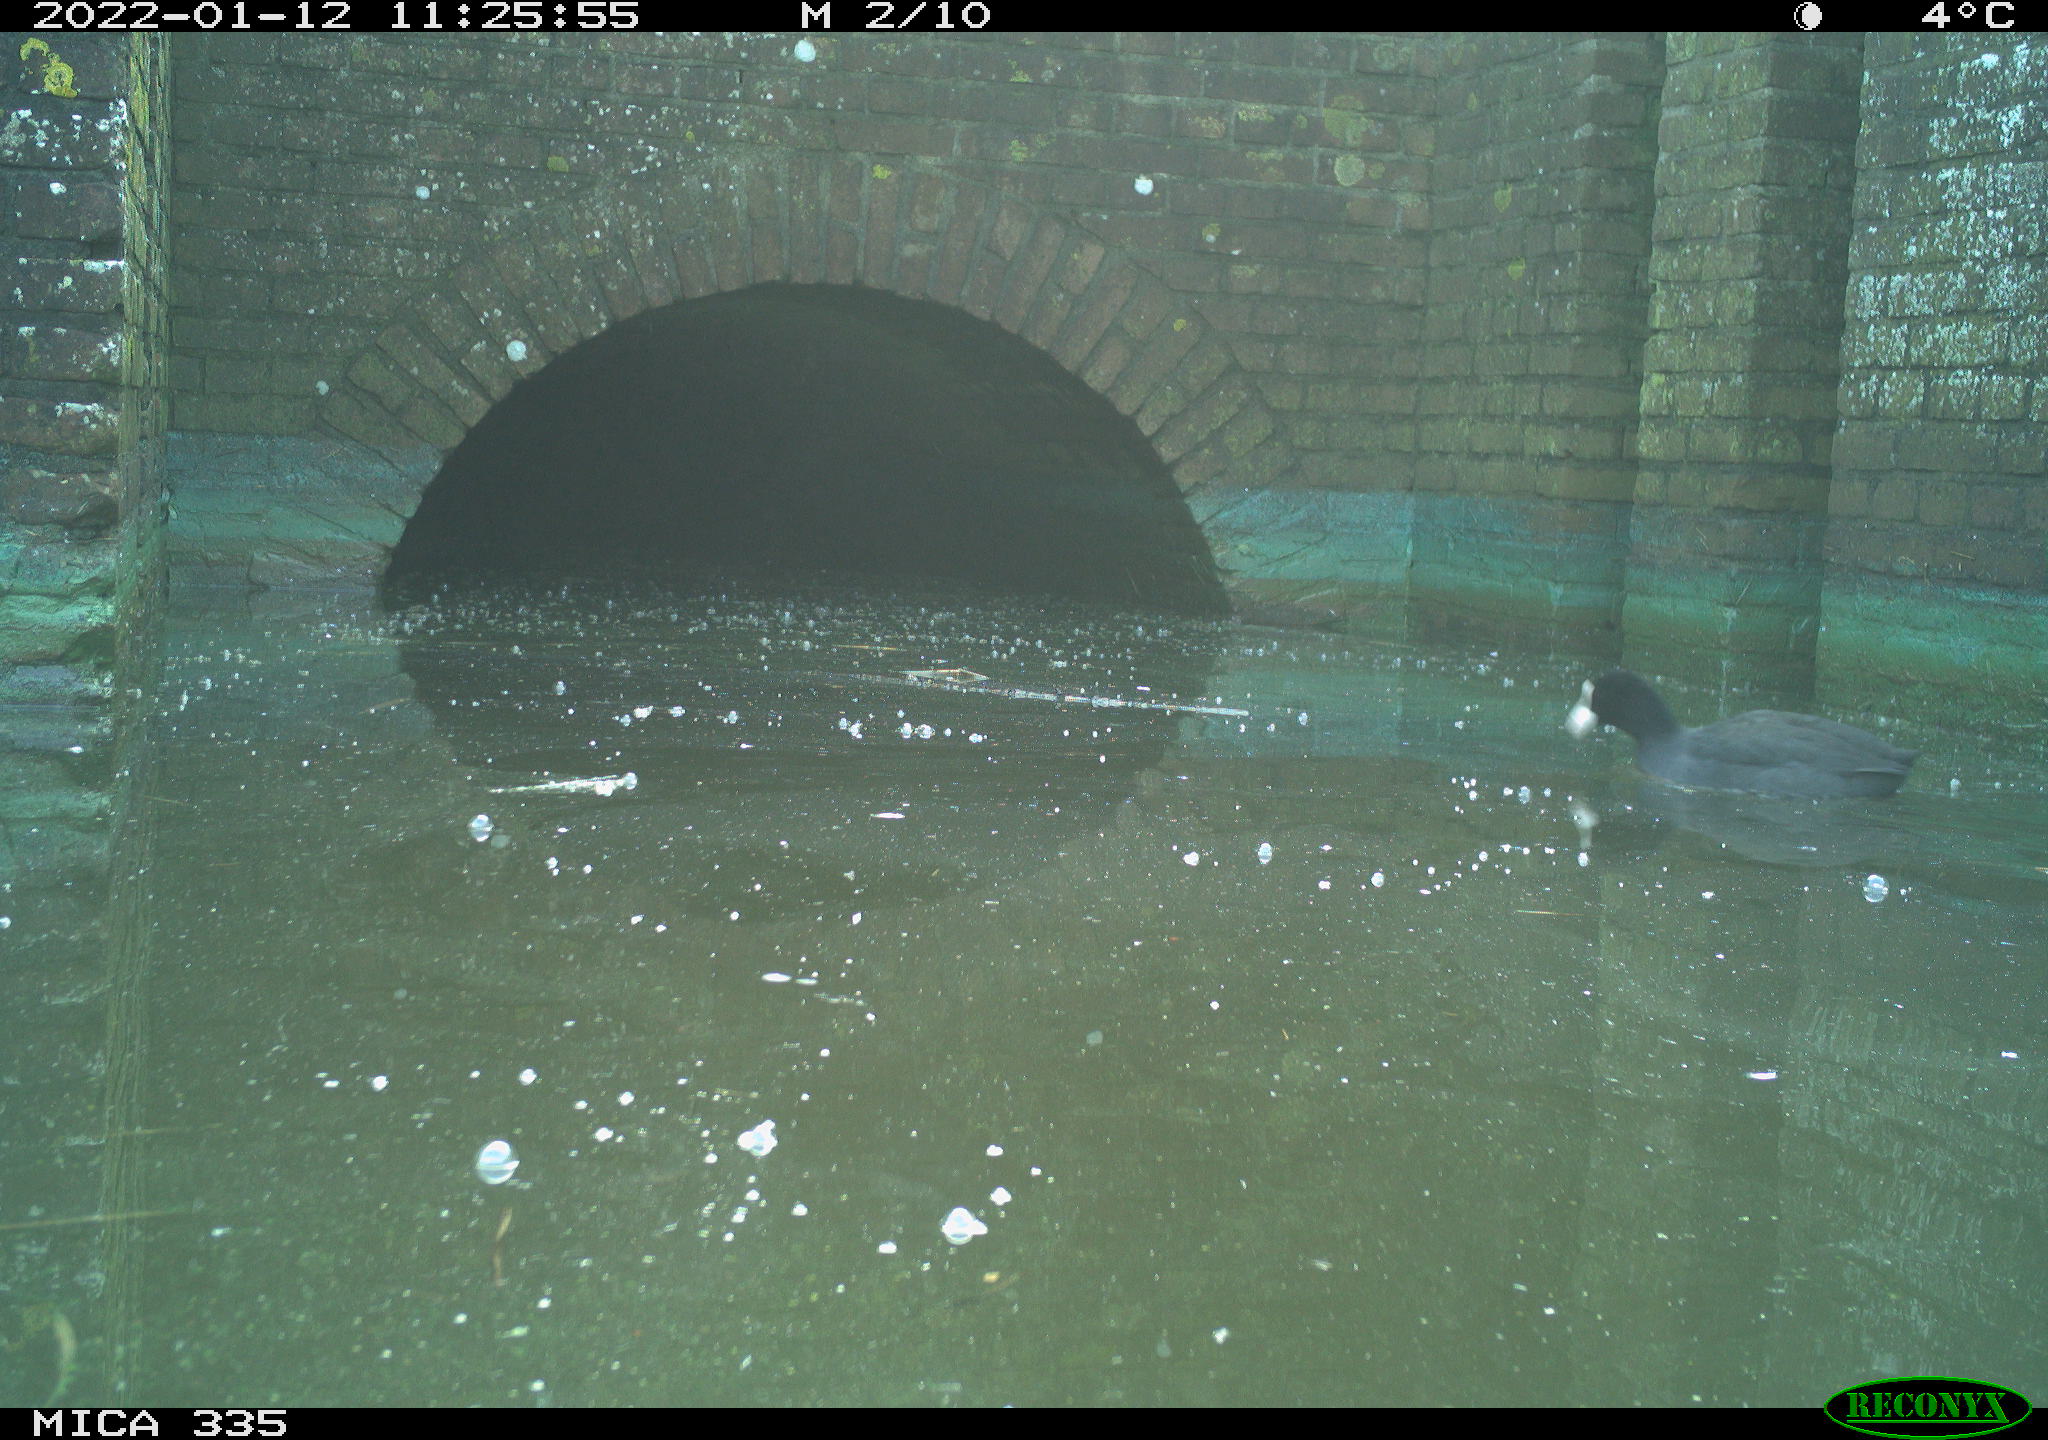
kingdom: Animalia
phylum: Chordata
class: Aves
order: Gruiformes
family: Rallidae
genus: Fulica
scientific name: Fulica atra
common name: Eurasian coot
